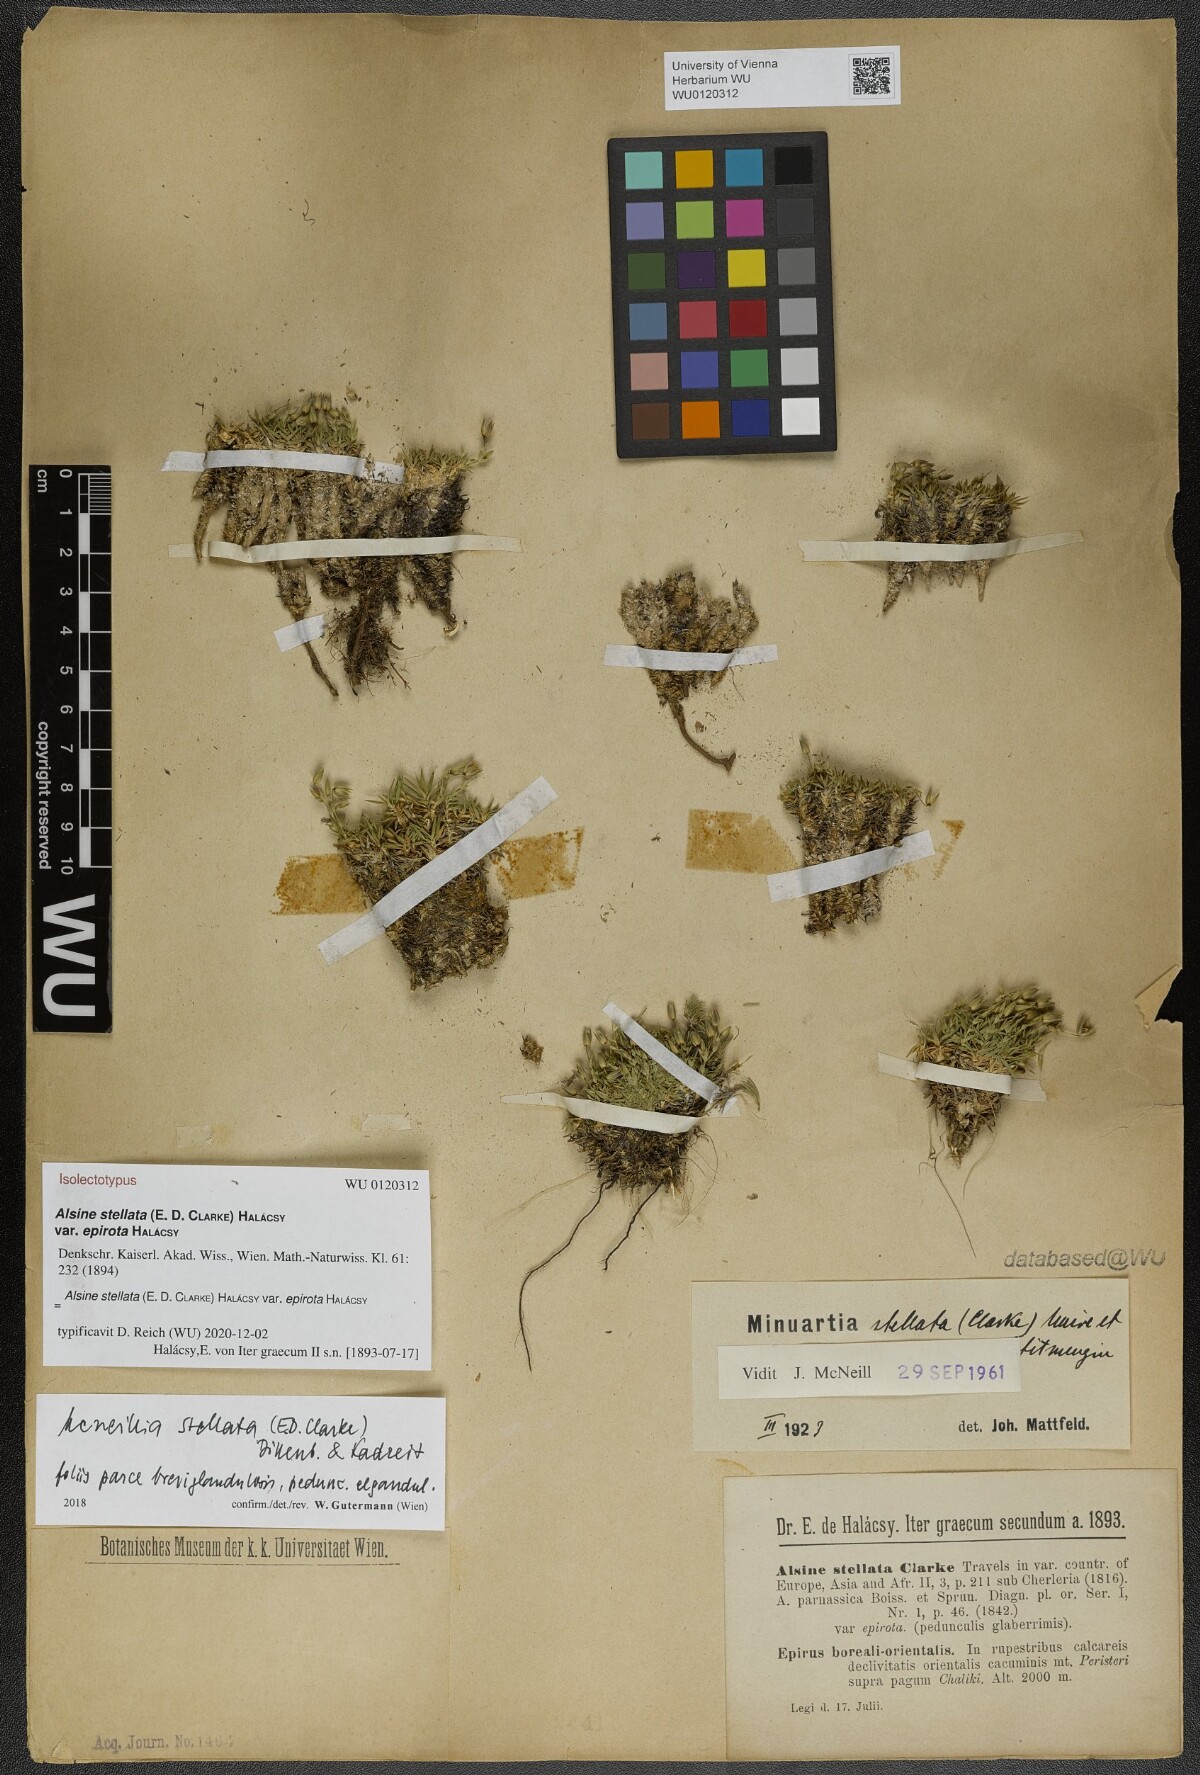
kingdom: Plantae
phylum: Tracheophyta
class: Magnoliopsida
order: Caryophyllales
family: Caryophyllaceae
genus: Mcneillia
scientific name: Mcneillia stellata
